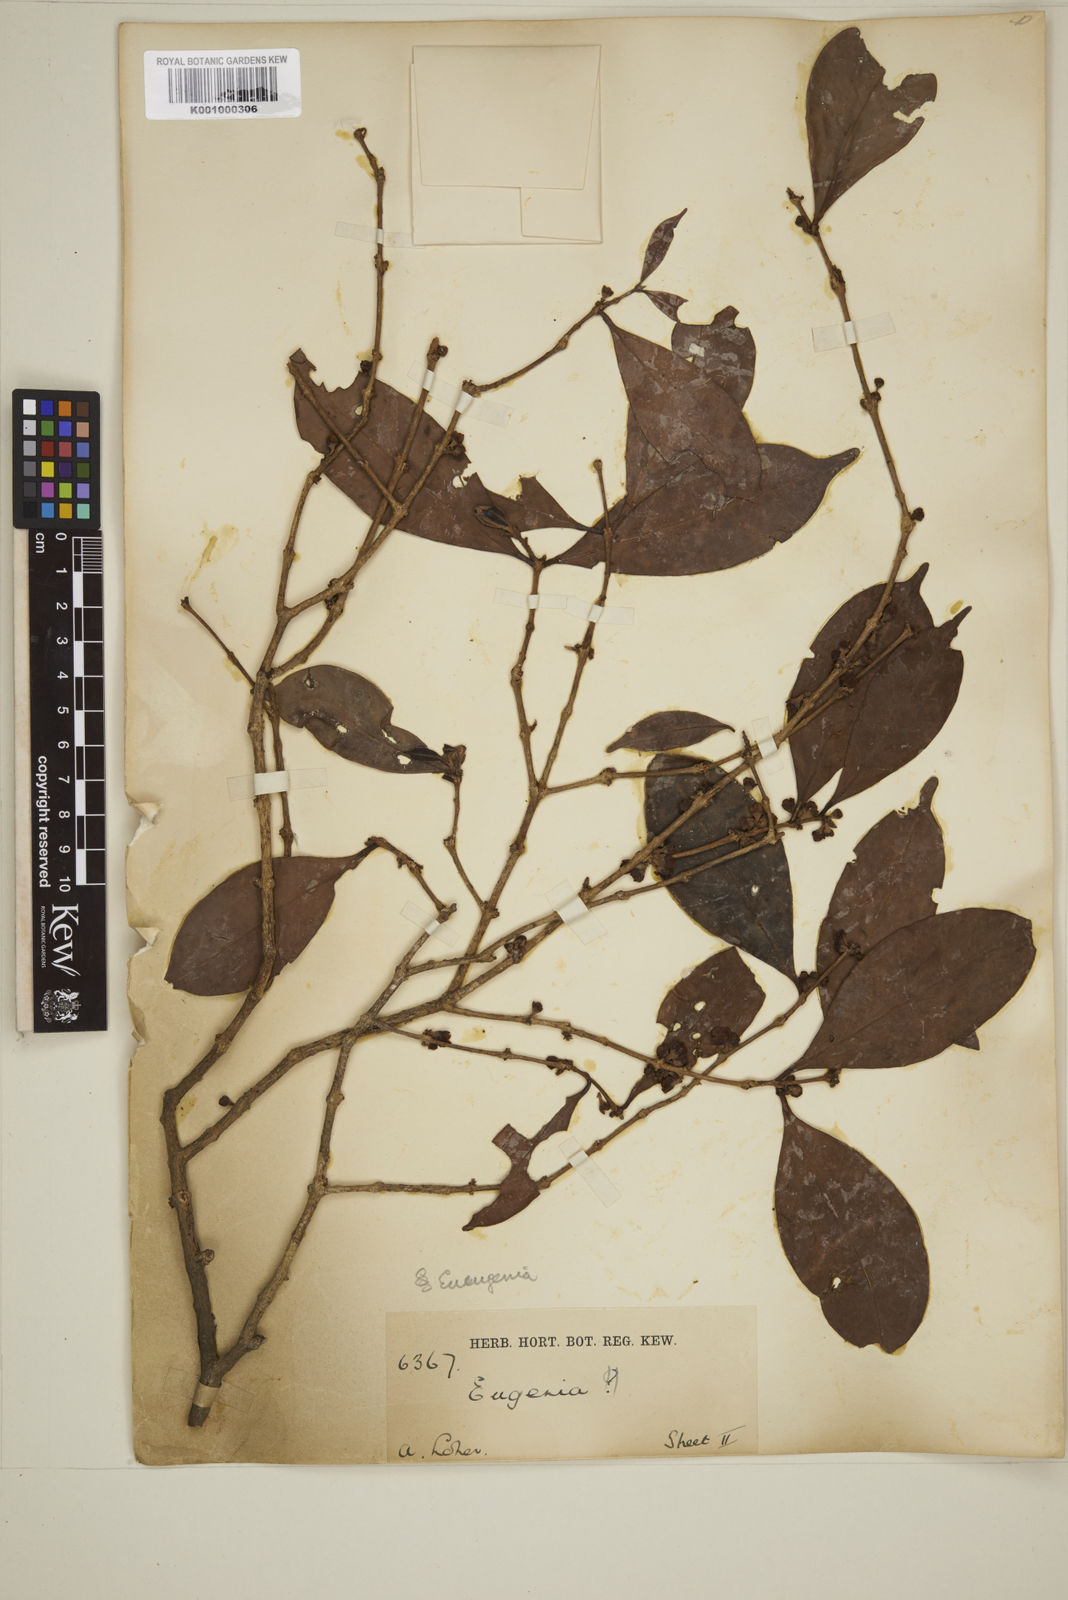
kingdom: Plantae
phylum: Tracheophyta
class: Magnoliopsida
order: Myrtales
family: Myrtaceae
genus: Eugenia
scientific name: Eugenia tulanan
